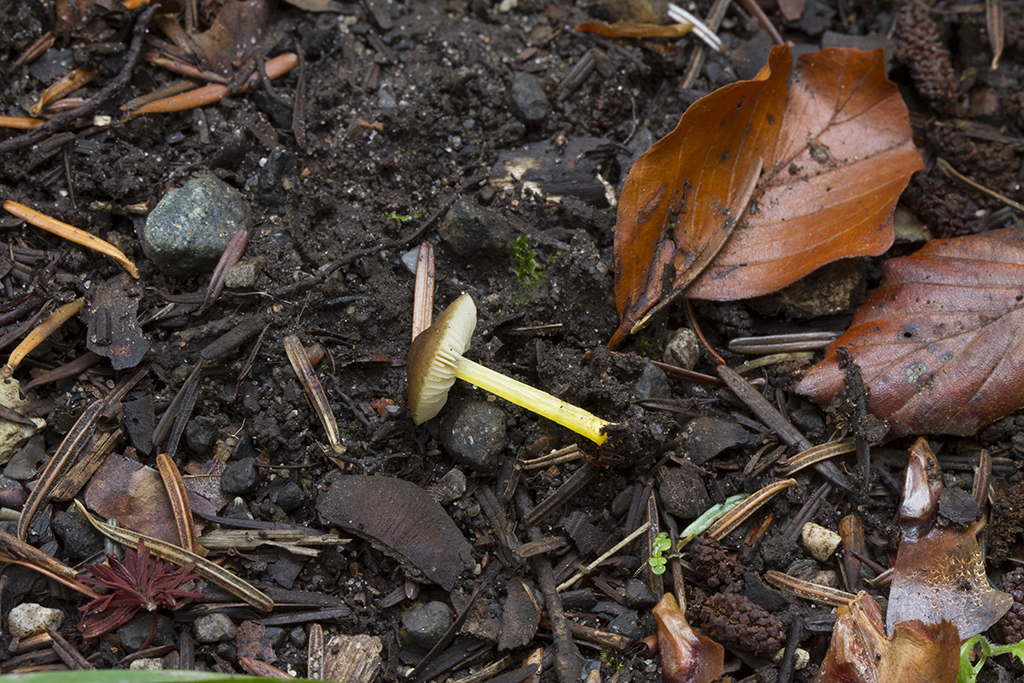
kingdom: Fungi
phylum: Basidiomycota
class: Agaricomycetes
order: Agaricales
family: Pluteaceae
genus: Pluteus
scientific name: Pluteus vellingae
